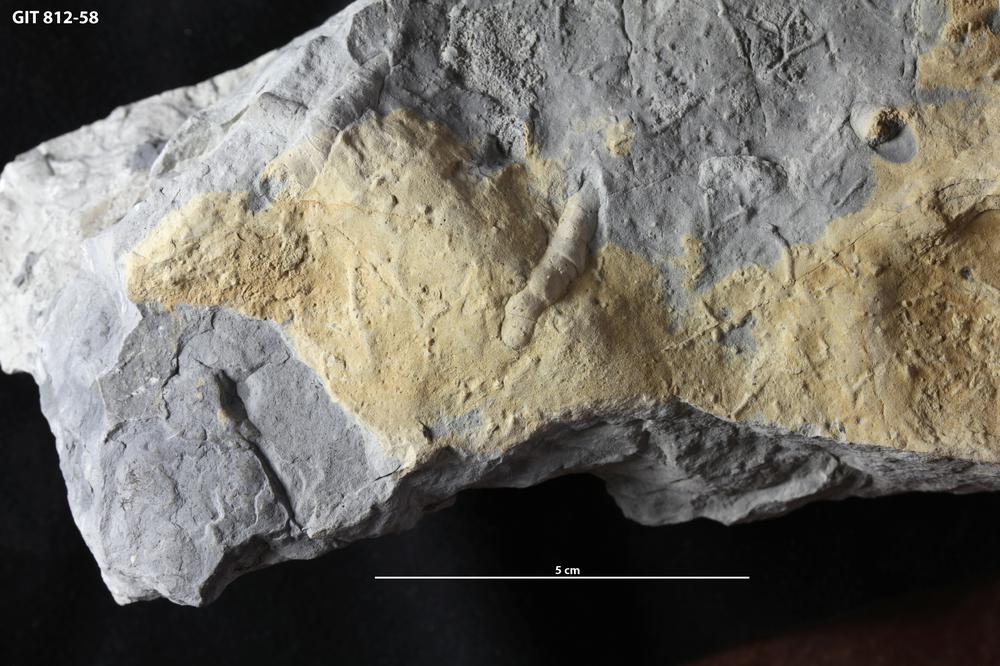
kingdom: Animalia
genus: Planolites
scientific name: Planolites beverleyensis
